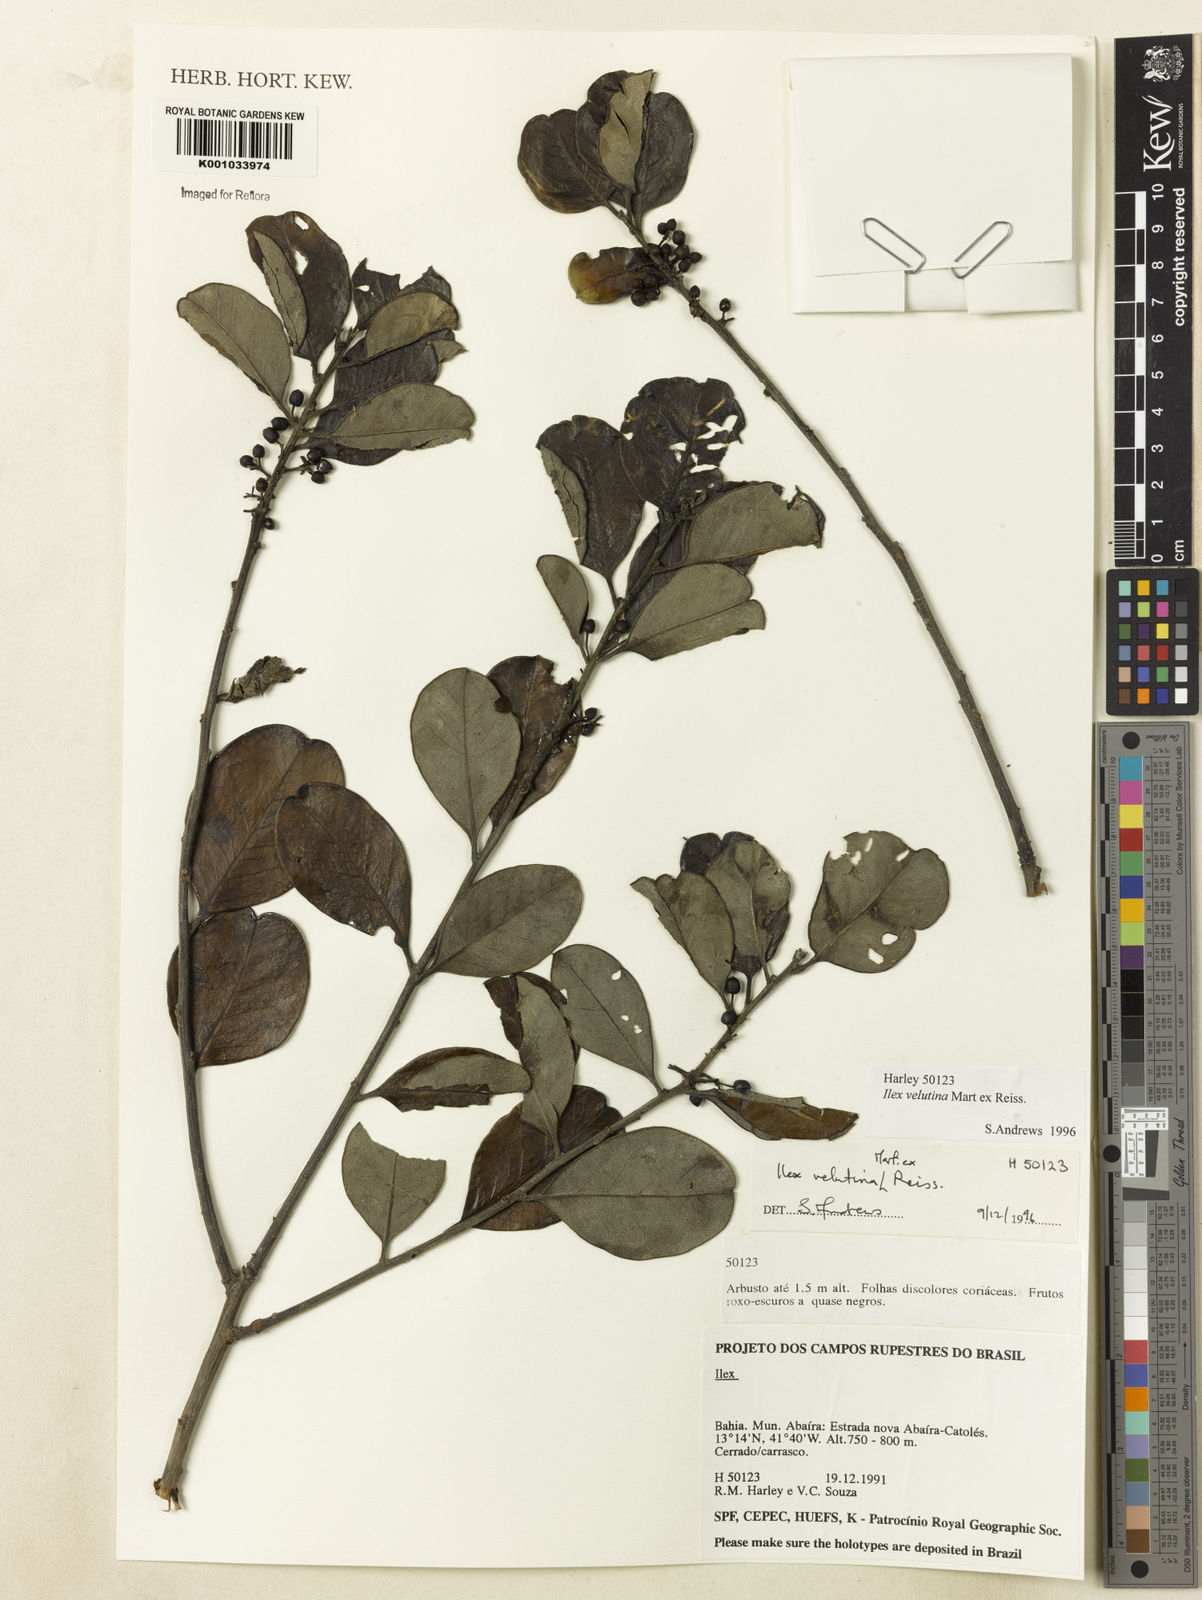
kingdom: Plantae
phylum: Tracheophyta
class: Magnoliopsida
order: Aquifoliales
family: Aquifoliaceae
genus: Ilex
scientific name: Ilex velutina
